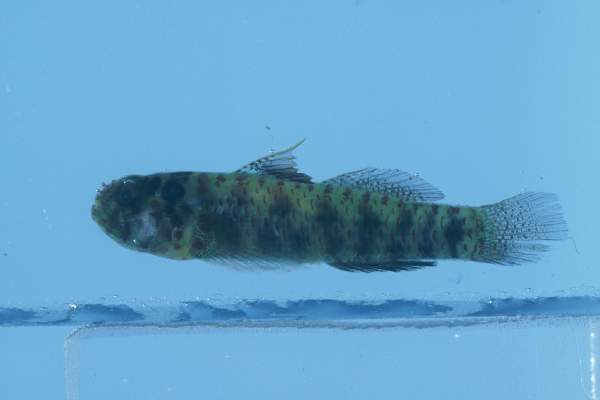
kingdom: Animalia
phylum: Chordata
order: Perciformes
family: Gobiidae
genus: Eviota
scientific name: Eviota prasina
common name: Green bubble goby
